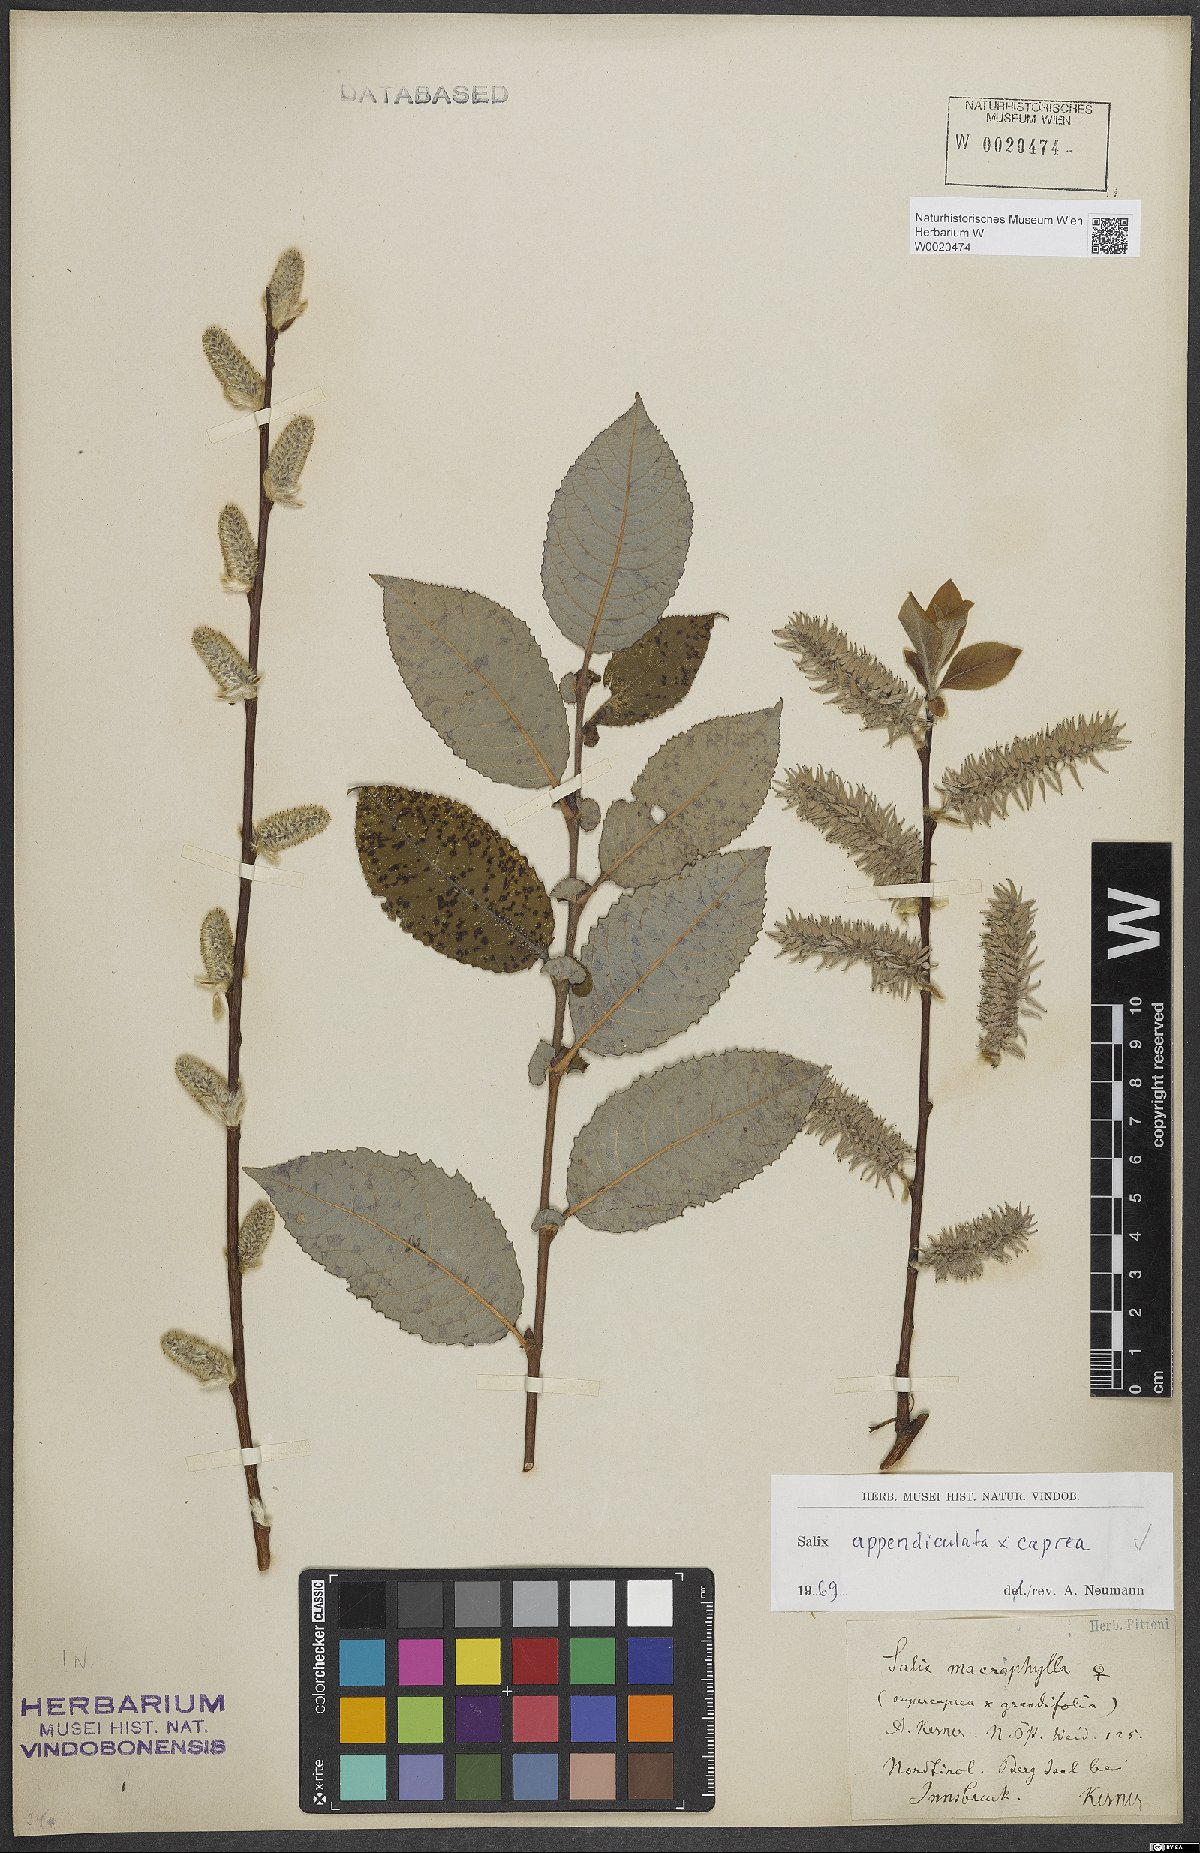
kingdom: Plantae
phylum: Tracheophyta
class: Magnoliopsida
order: Malpighiales
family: Salicaceae
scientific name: Salicaceae
